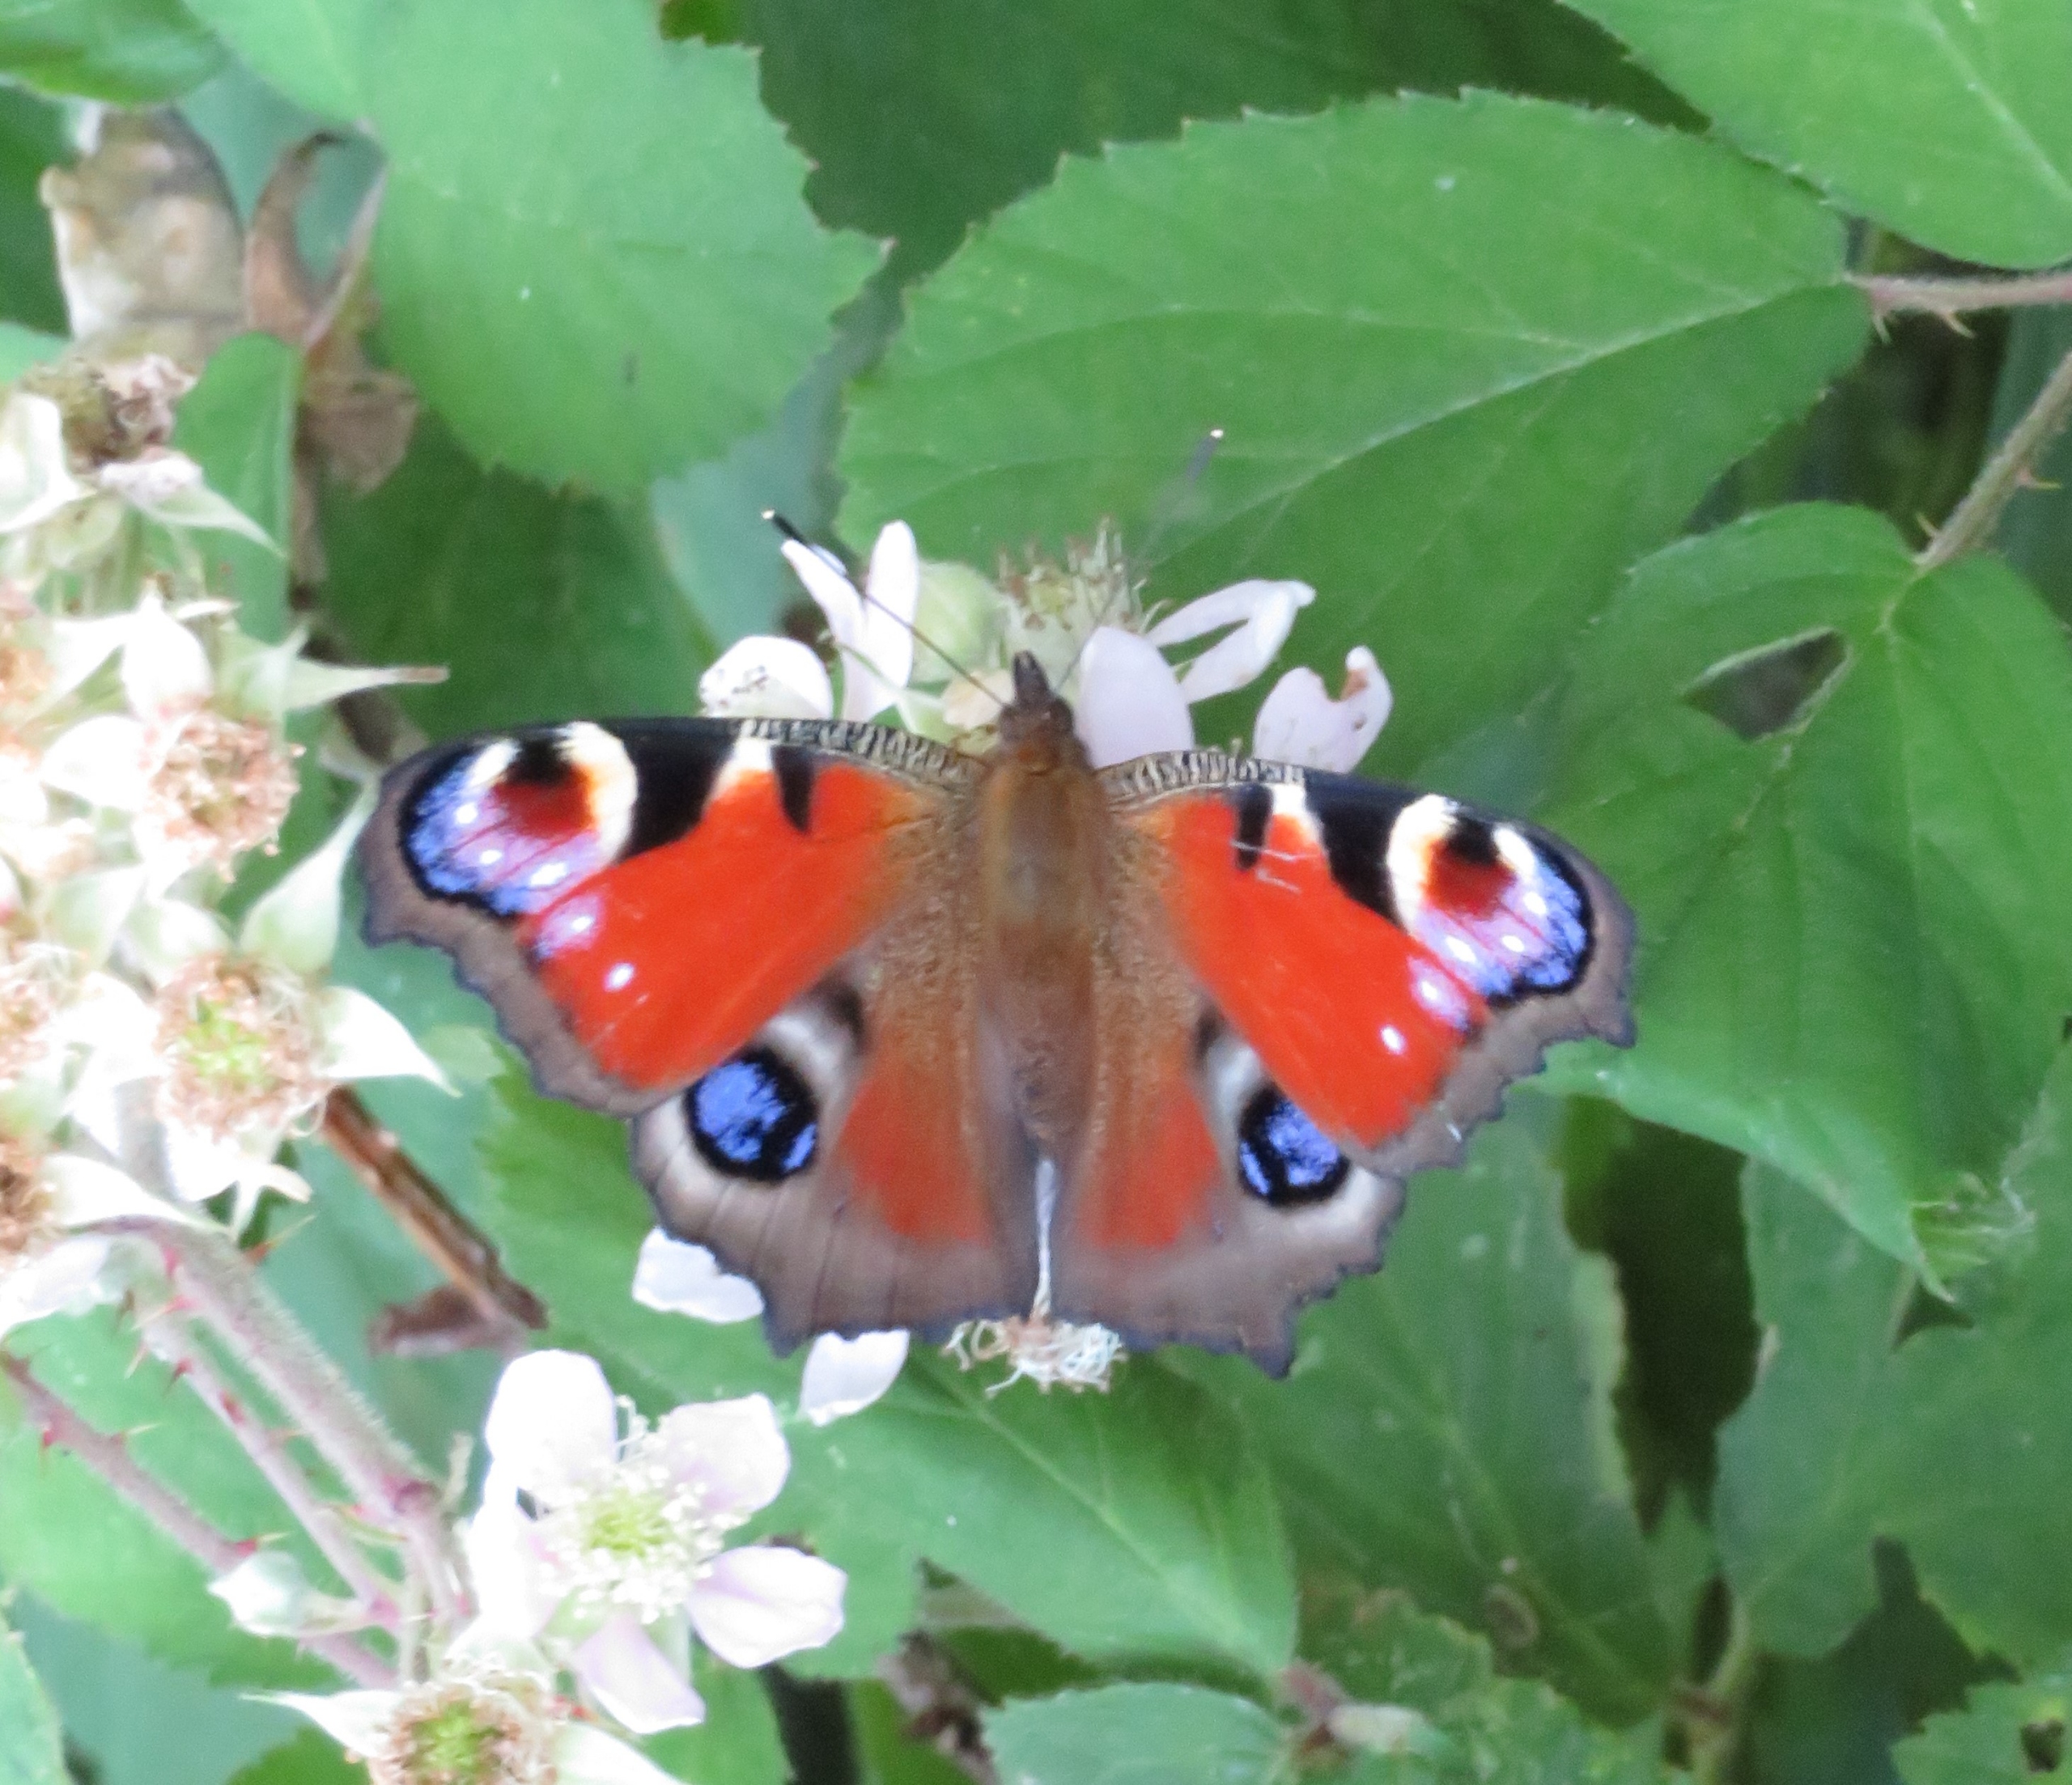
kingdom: Animalia
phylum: Arthropoda
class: Insecta
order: Lepidoptera
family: Nymphalidae
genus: Aglais
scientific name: Aglais io
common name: Dagpåfugleøje
